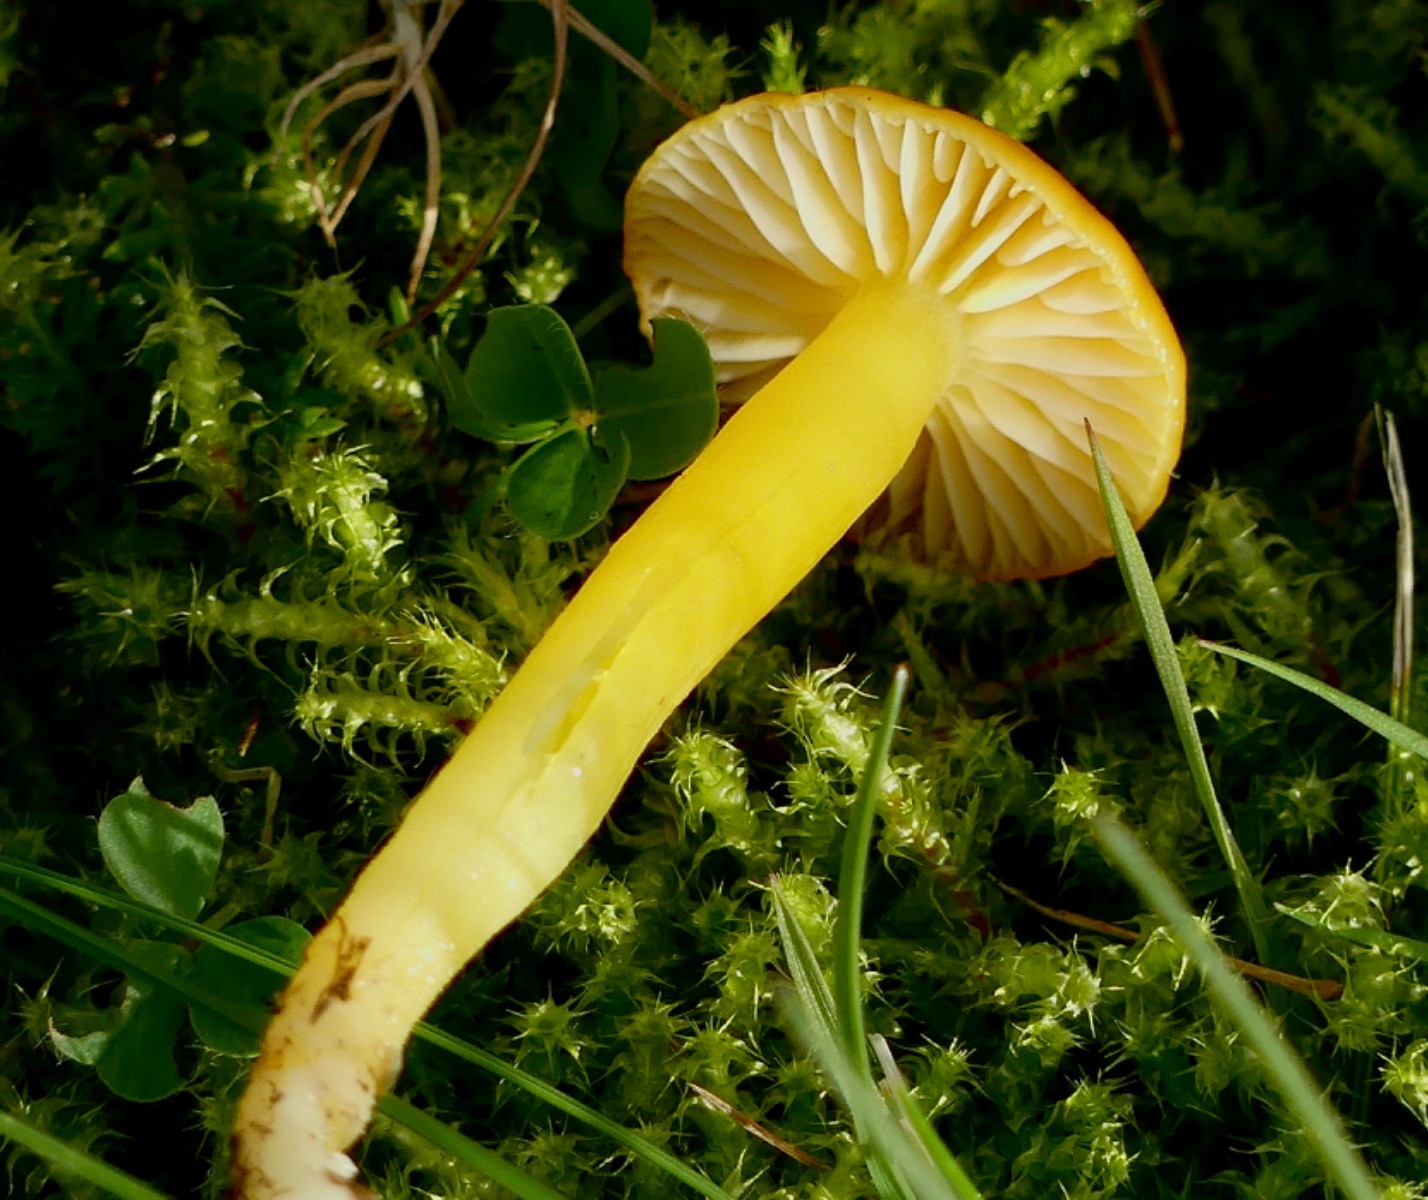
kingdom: Fungi
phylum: Basidiomycota
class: Agaricomycetes
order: Agaricales
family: Hygrophoraceae
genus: Hygrocybe
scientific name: Hygrocybe ceracea
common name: voksgul vokshat
